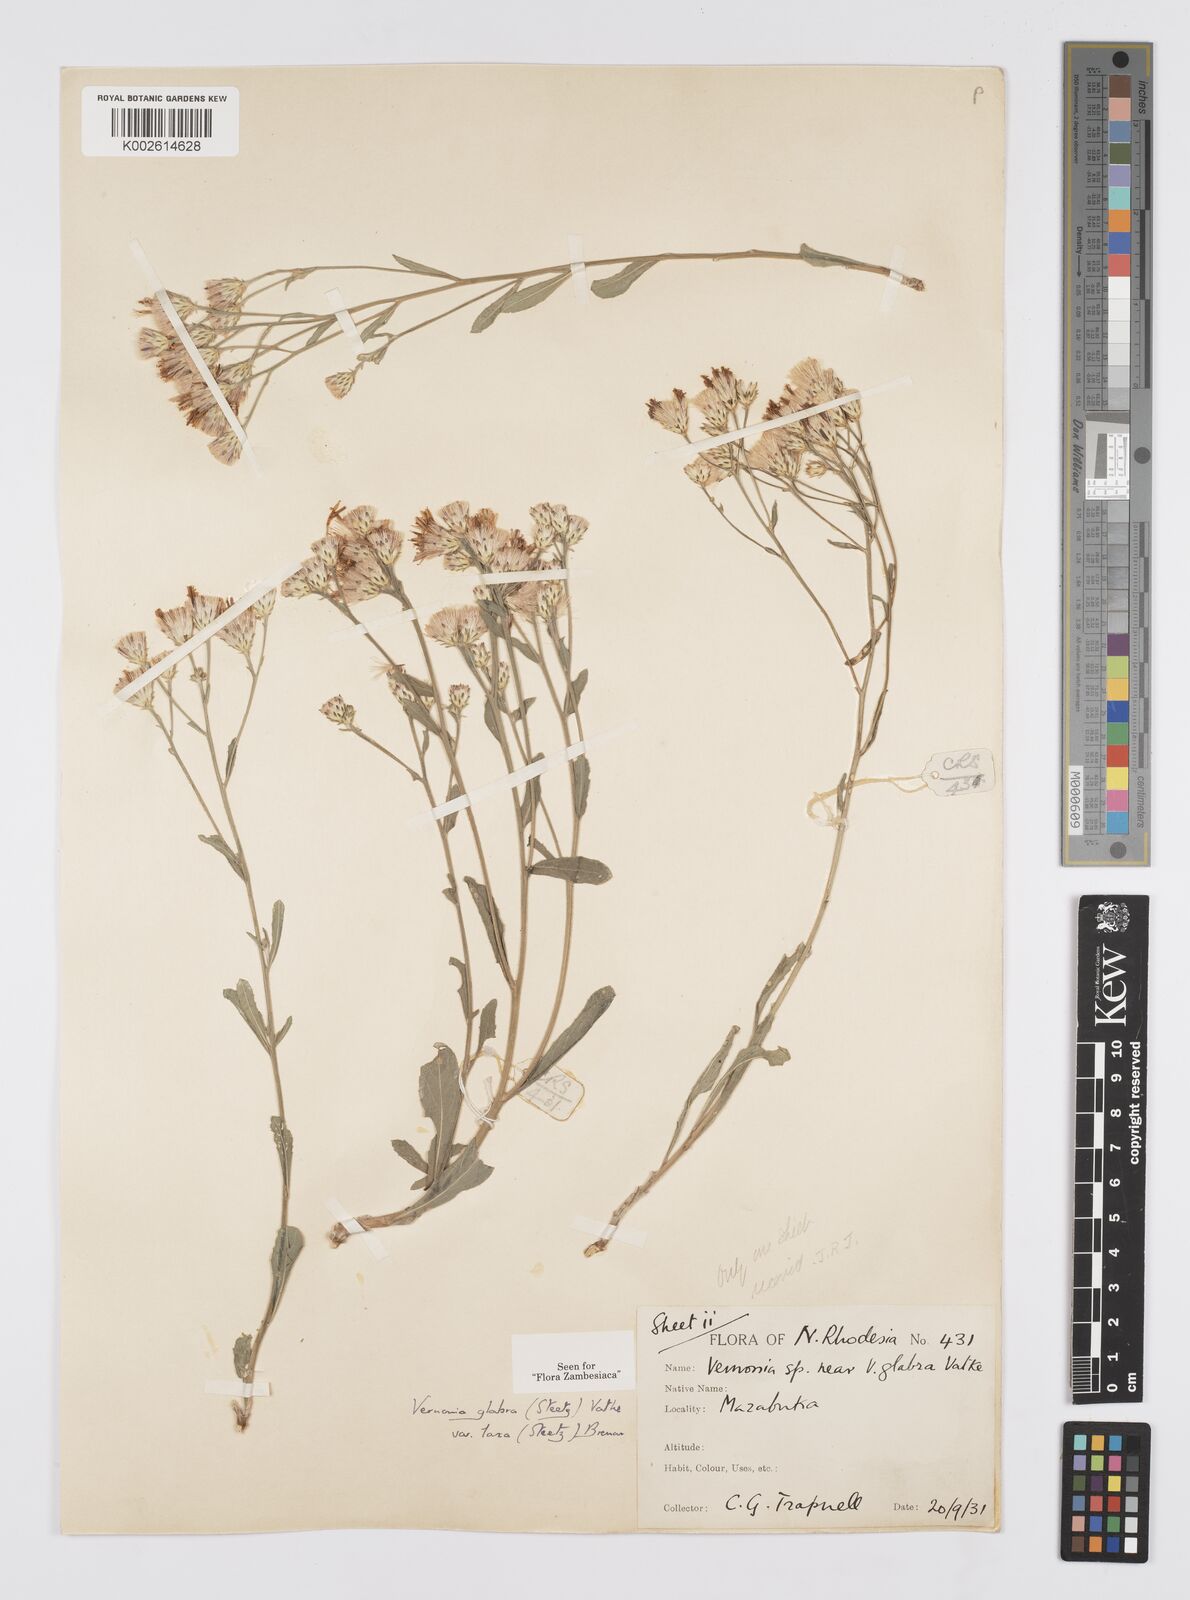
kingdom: Plantae
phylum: Tracheophyta
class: Magnoliopsida
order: Asterales
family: Asteraceae
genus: Linzia
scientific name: Linzia glabra
